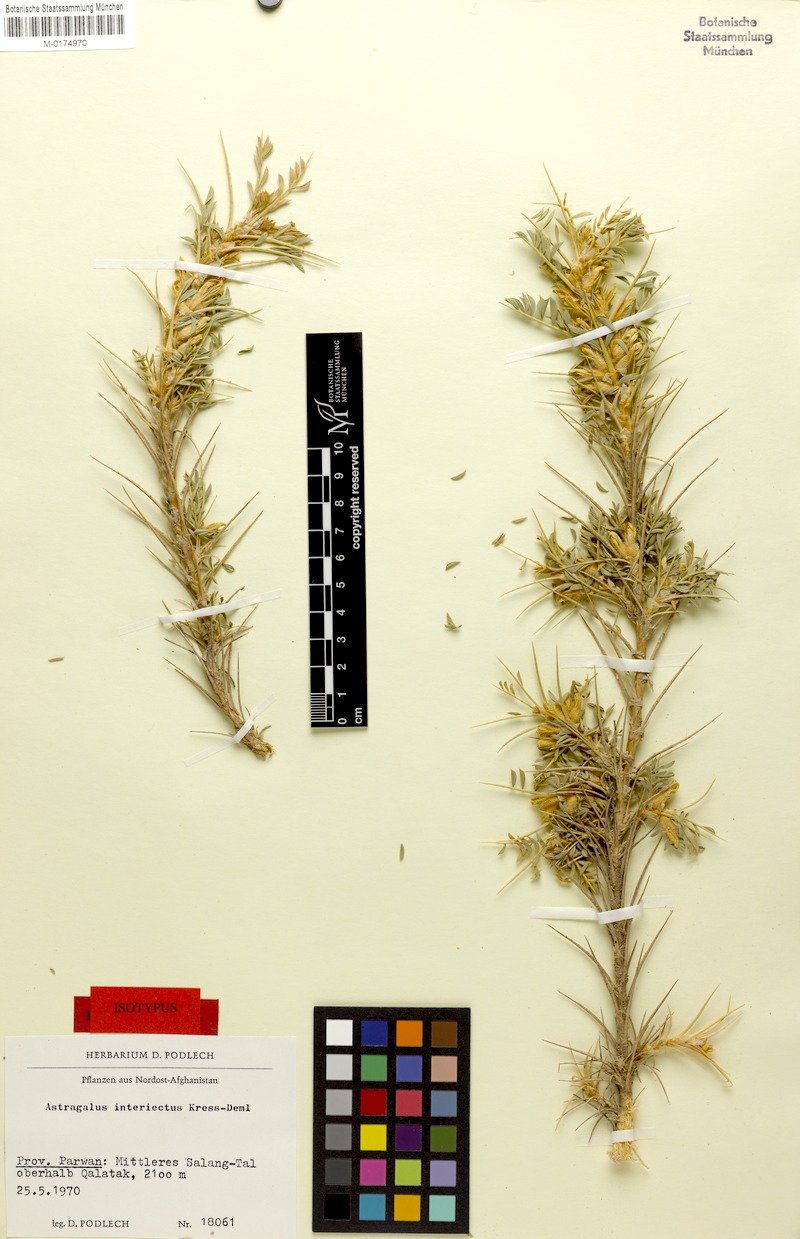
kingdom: Plantae
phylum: Tracheophyta
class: Magnoliopsida
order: Fabales
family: Fabaceae
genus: Astragalus
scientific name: Astragalus interiectus
